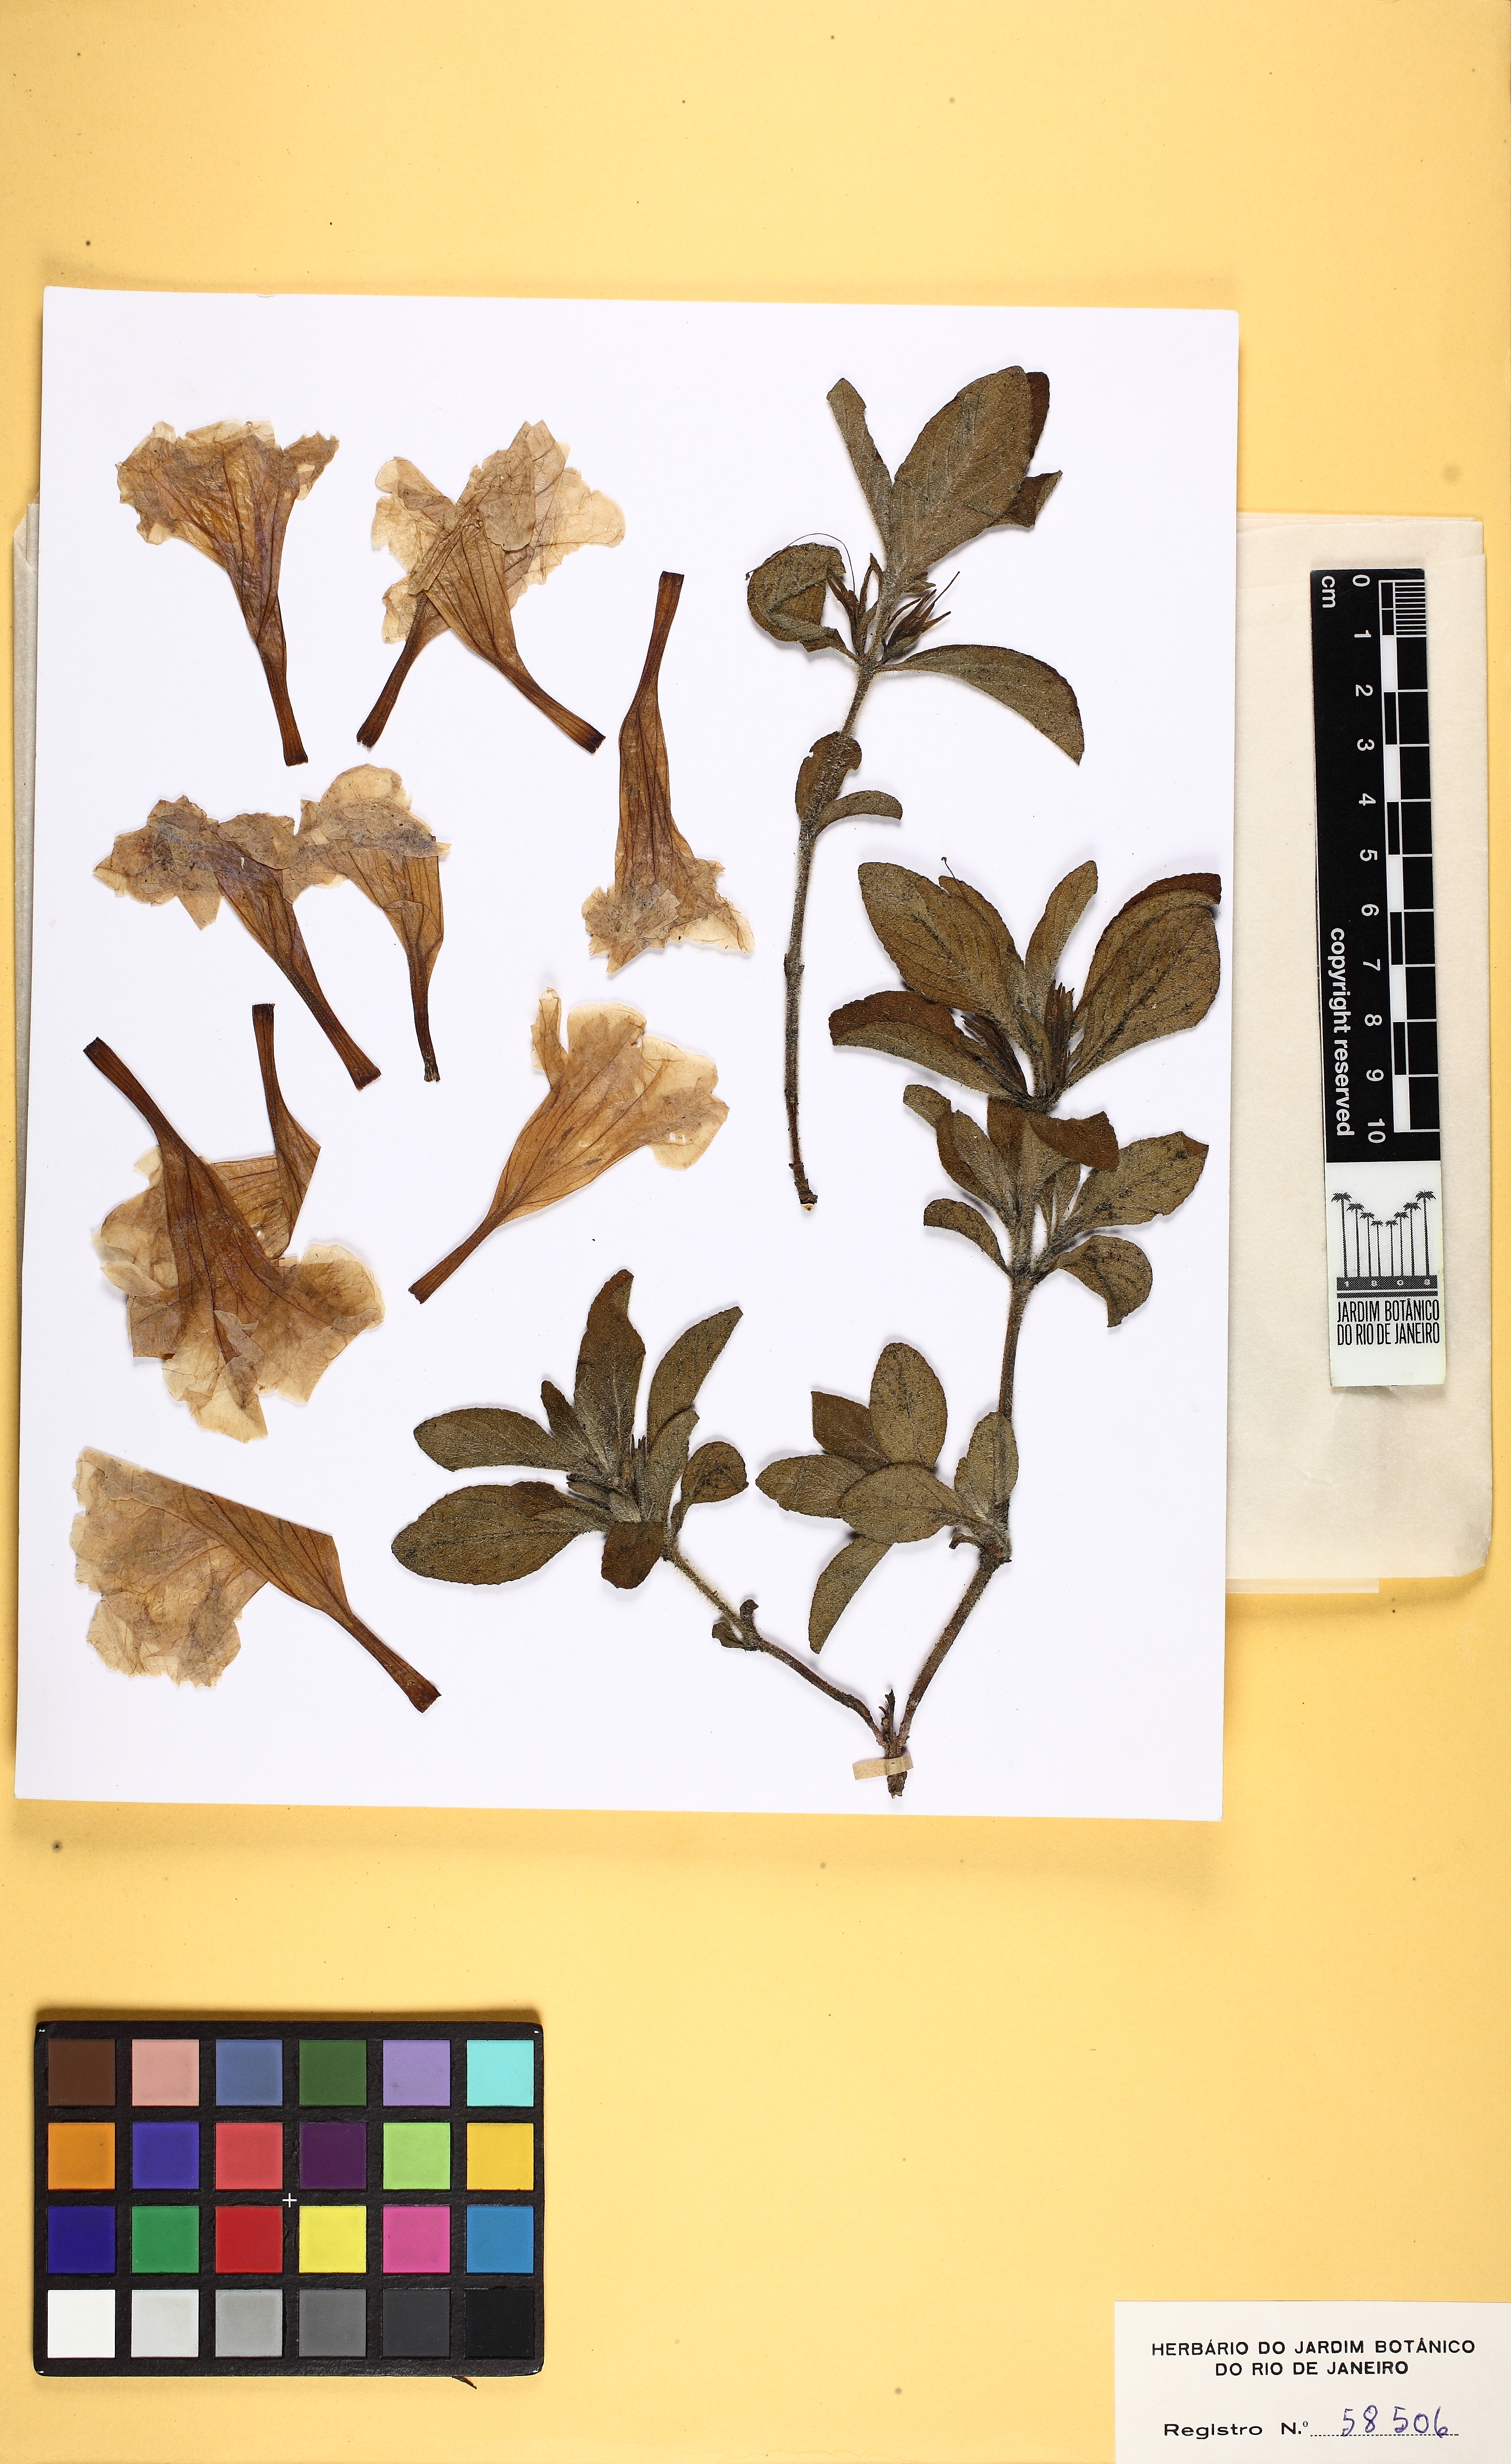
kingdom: Plantae
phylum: Tracheophyta
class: Magnoliopsida
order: Lamiales
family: Acanthaceae
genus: Ruellia
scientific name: Ruellia dissitifolia
